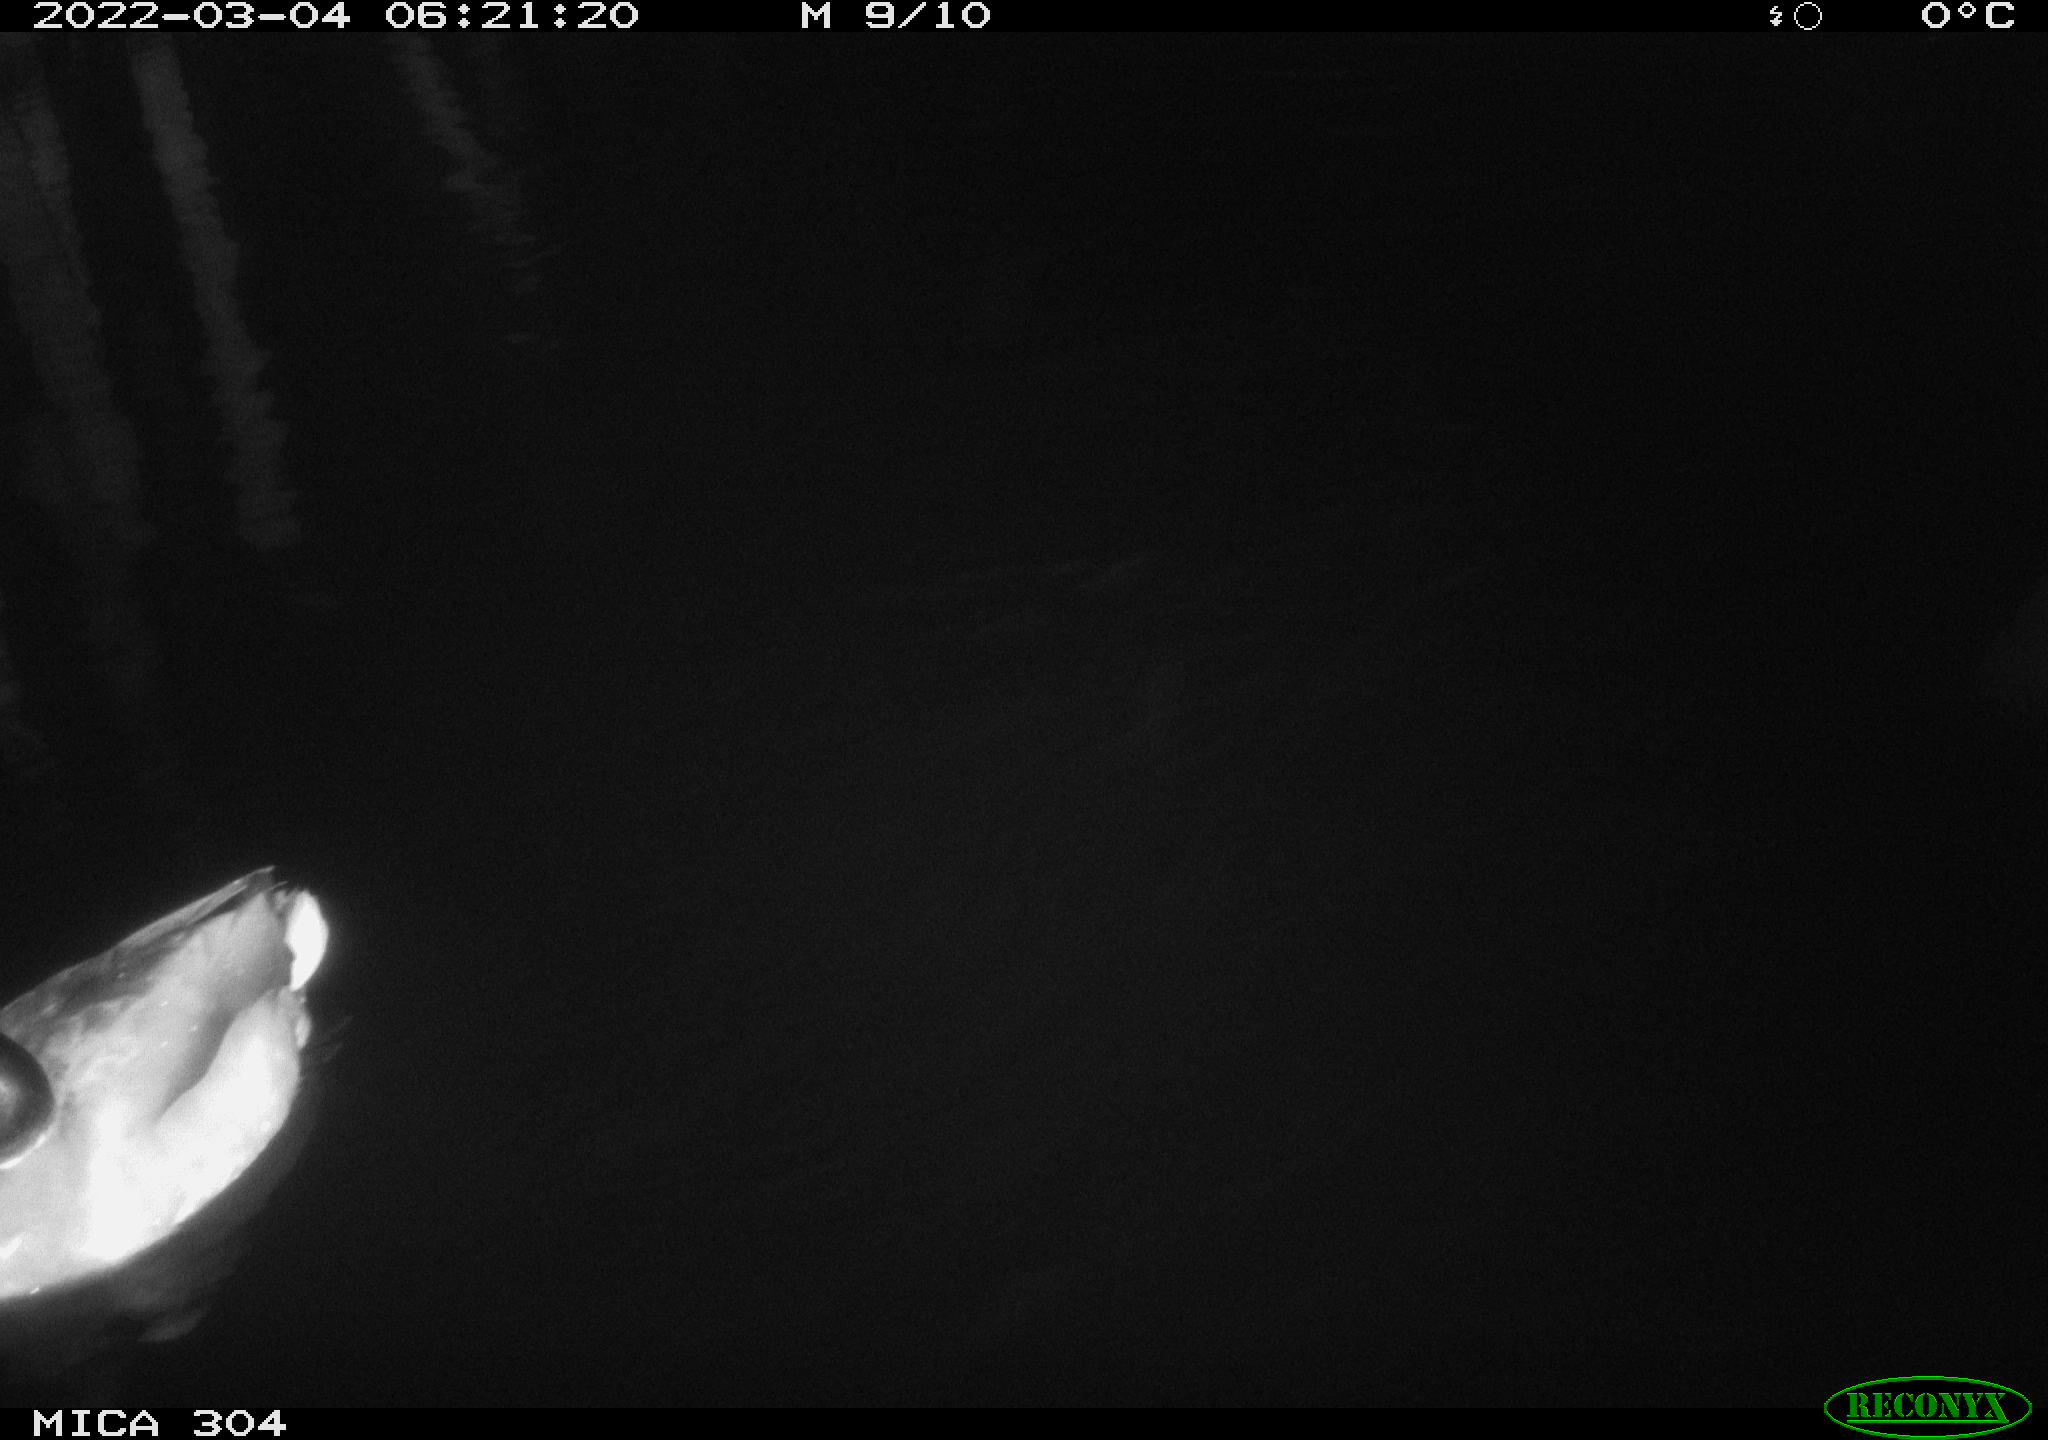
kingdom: Animalia
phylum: Chordata
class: Aves
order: Anseriformes
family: Anatidae
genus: Anas
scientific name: Anas platyrhynchos
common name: Mallard
